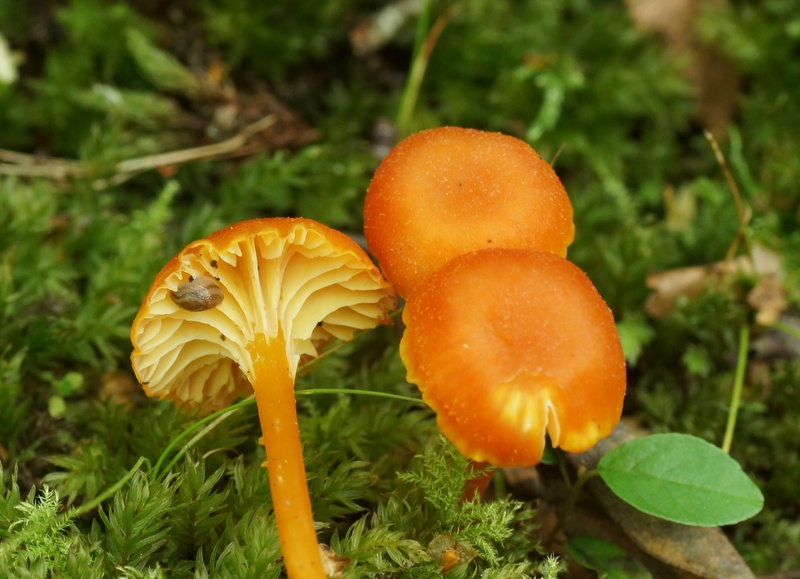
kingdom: Fungi
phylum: Basidiomycota
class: Agaricomycetes
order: Agaricales
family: Hygrophoraceae
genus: Hygrocybe
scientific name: Hygrocybe cantharellus
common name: kantarel-vokshat
